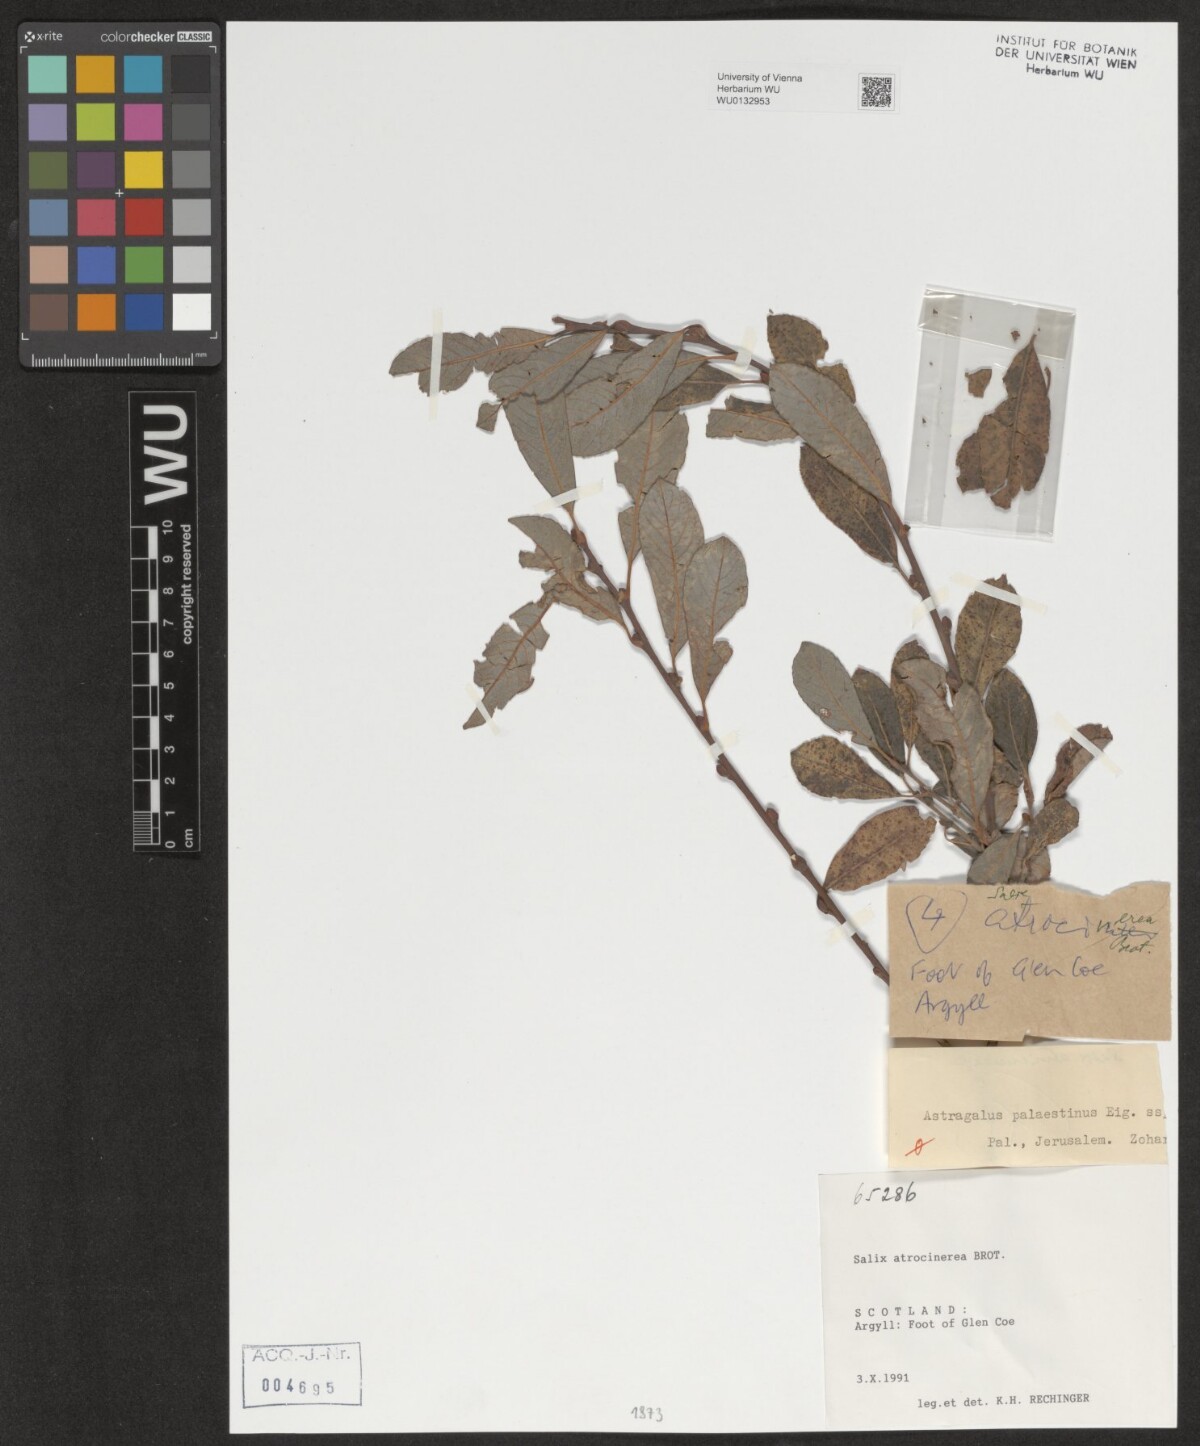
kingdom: Plantae
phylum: Tracheophyta
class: Magnoliopsida
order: Malpighiales
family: Salicaceae
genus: Salix
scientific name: Salix atrocinerea
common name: Rusty willow
